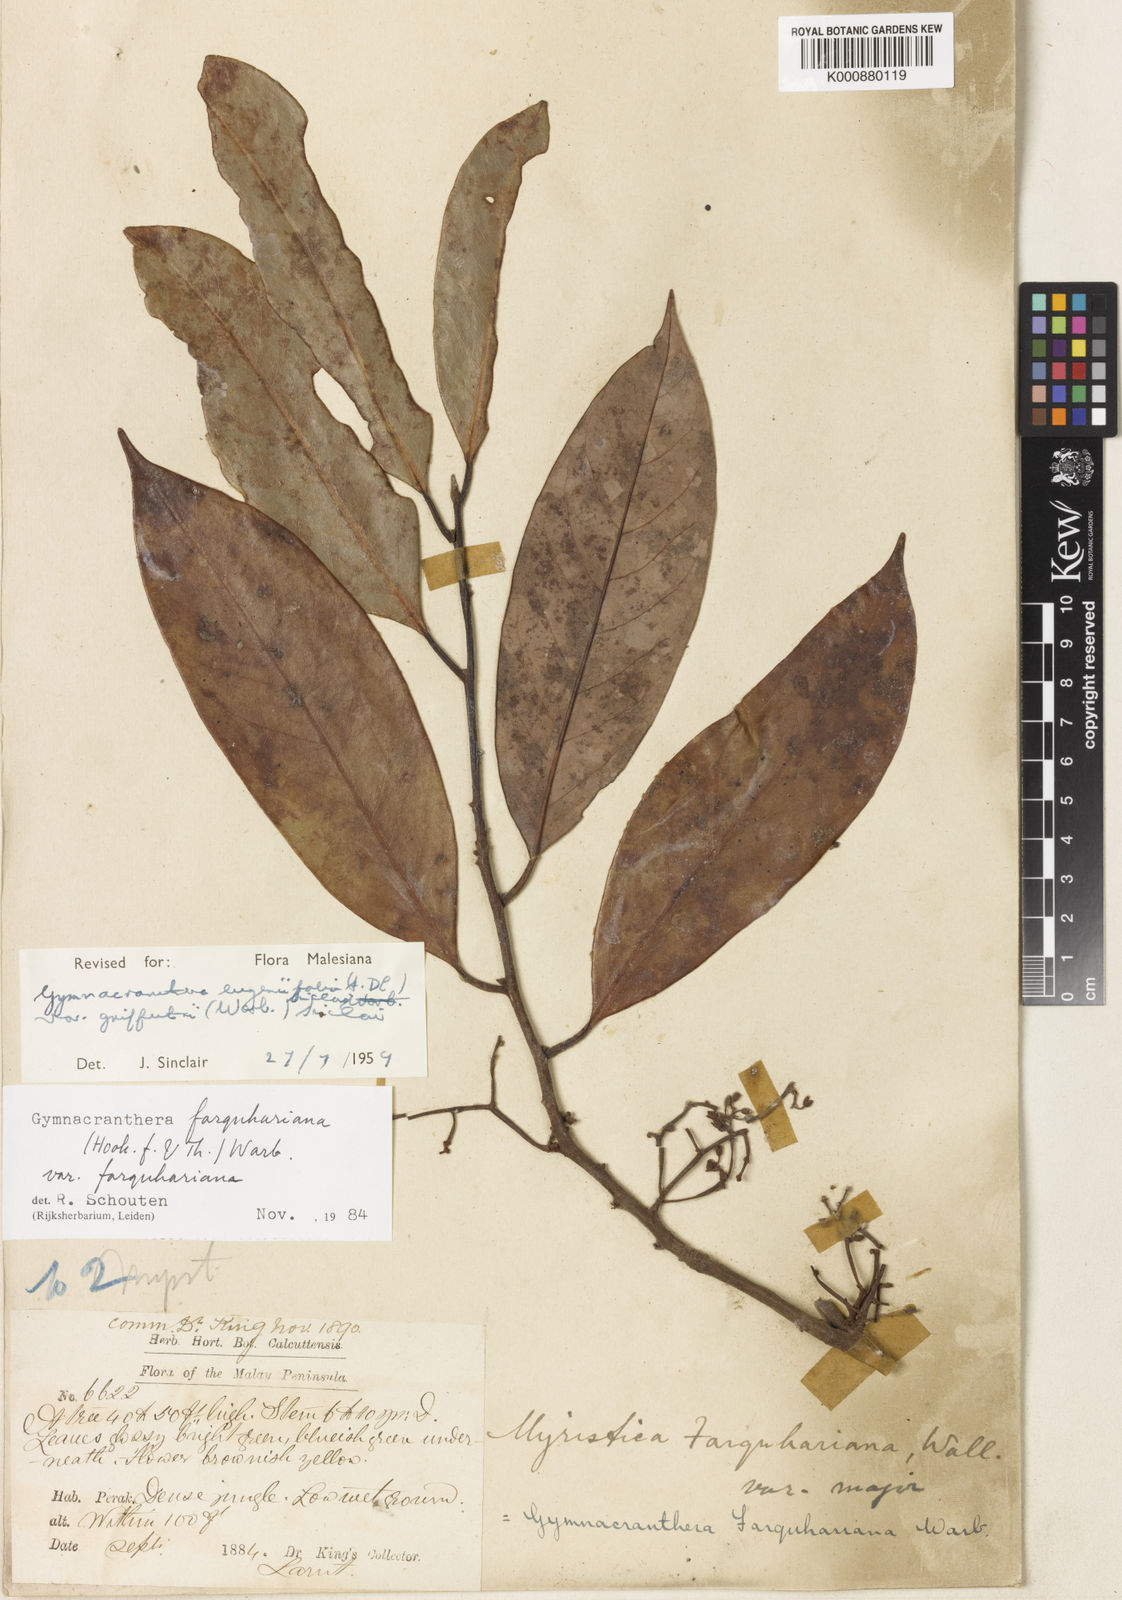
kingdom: Plantae
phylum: Tracheophyta
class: Magnoliopsida
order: Magnoliales
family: Myristicaceae
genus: Gymnacranthera
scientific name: Gymnacranthera farquhariana
